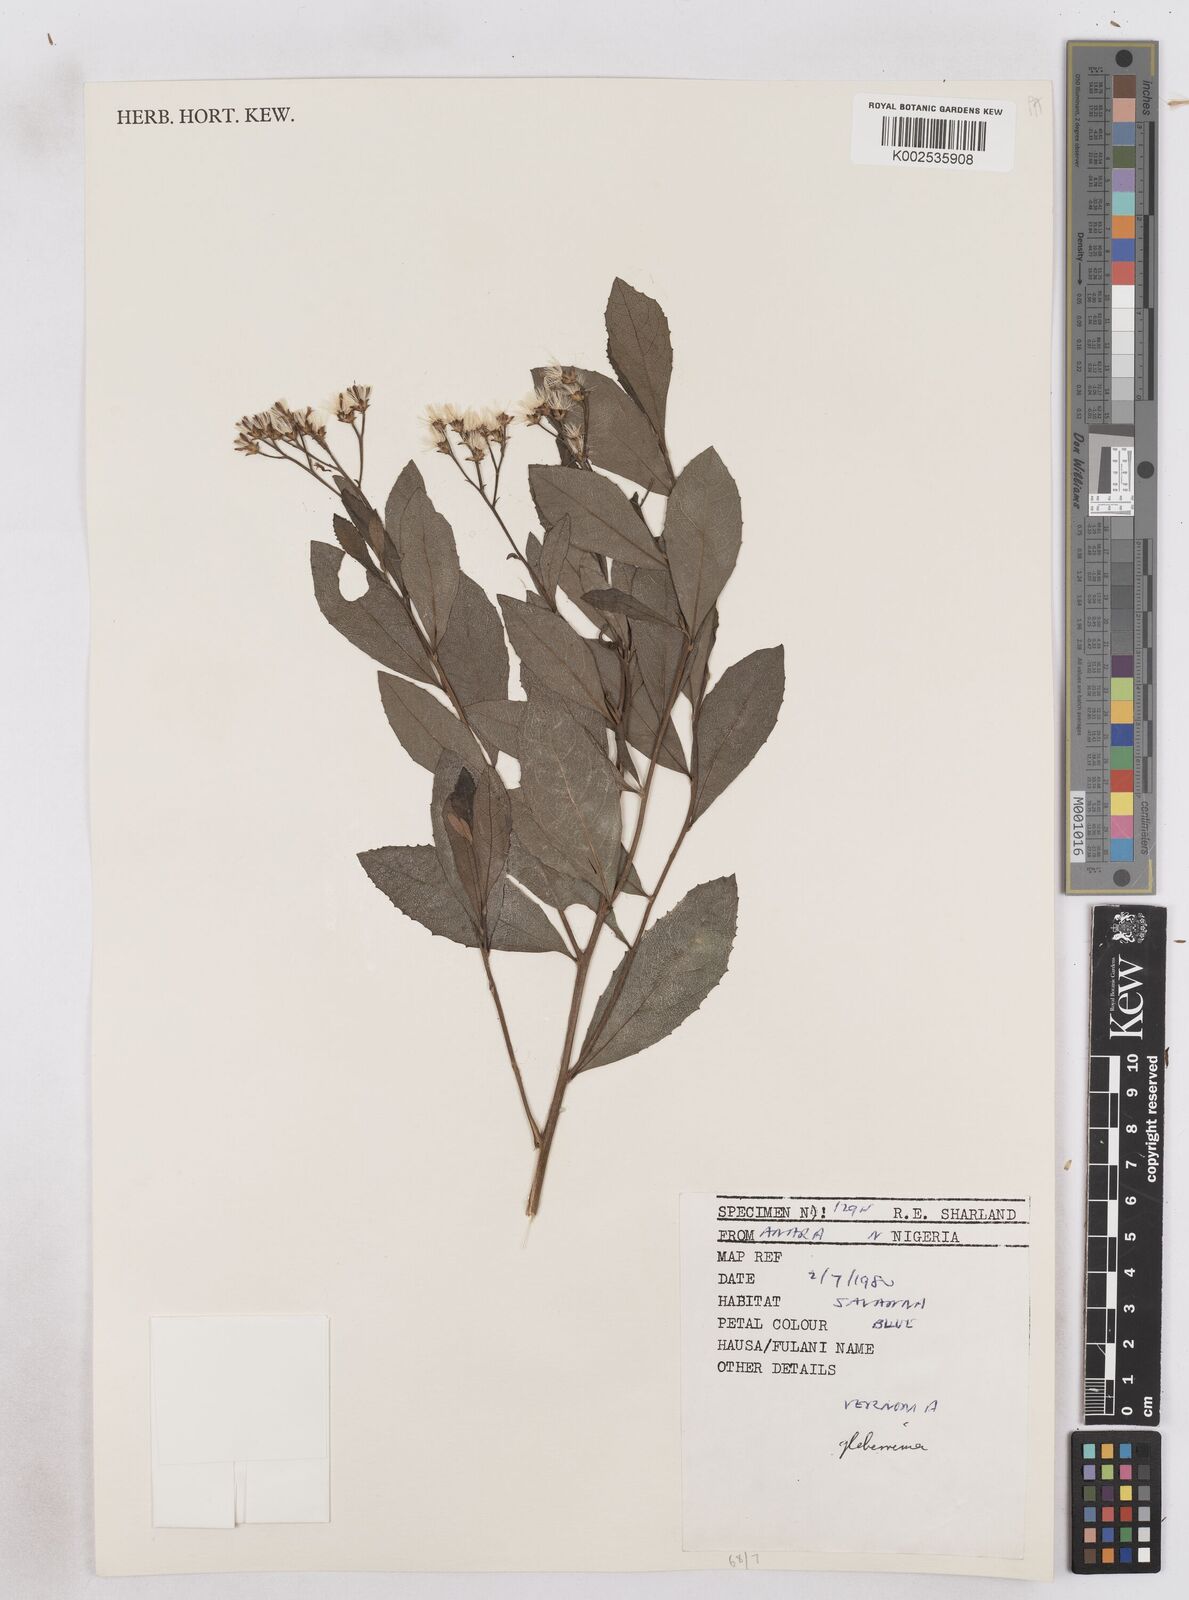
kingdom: Plantae
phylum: Tracheophyta
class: Magnoliopsida
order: Asterales
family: Asteraceae
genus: Gymnanthemum
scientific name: Gymnanthemum glaberrimum
